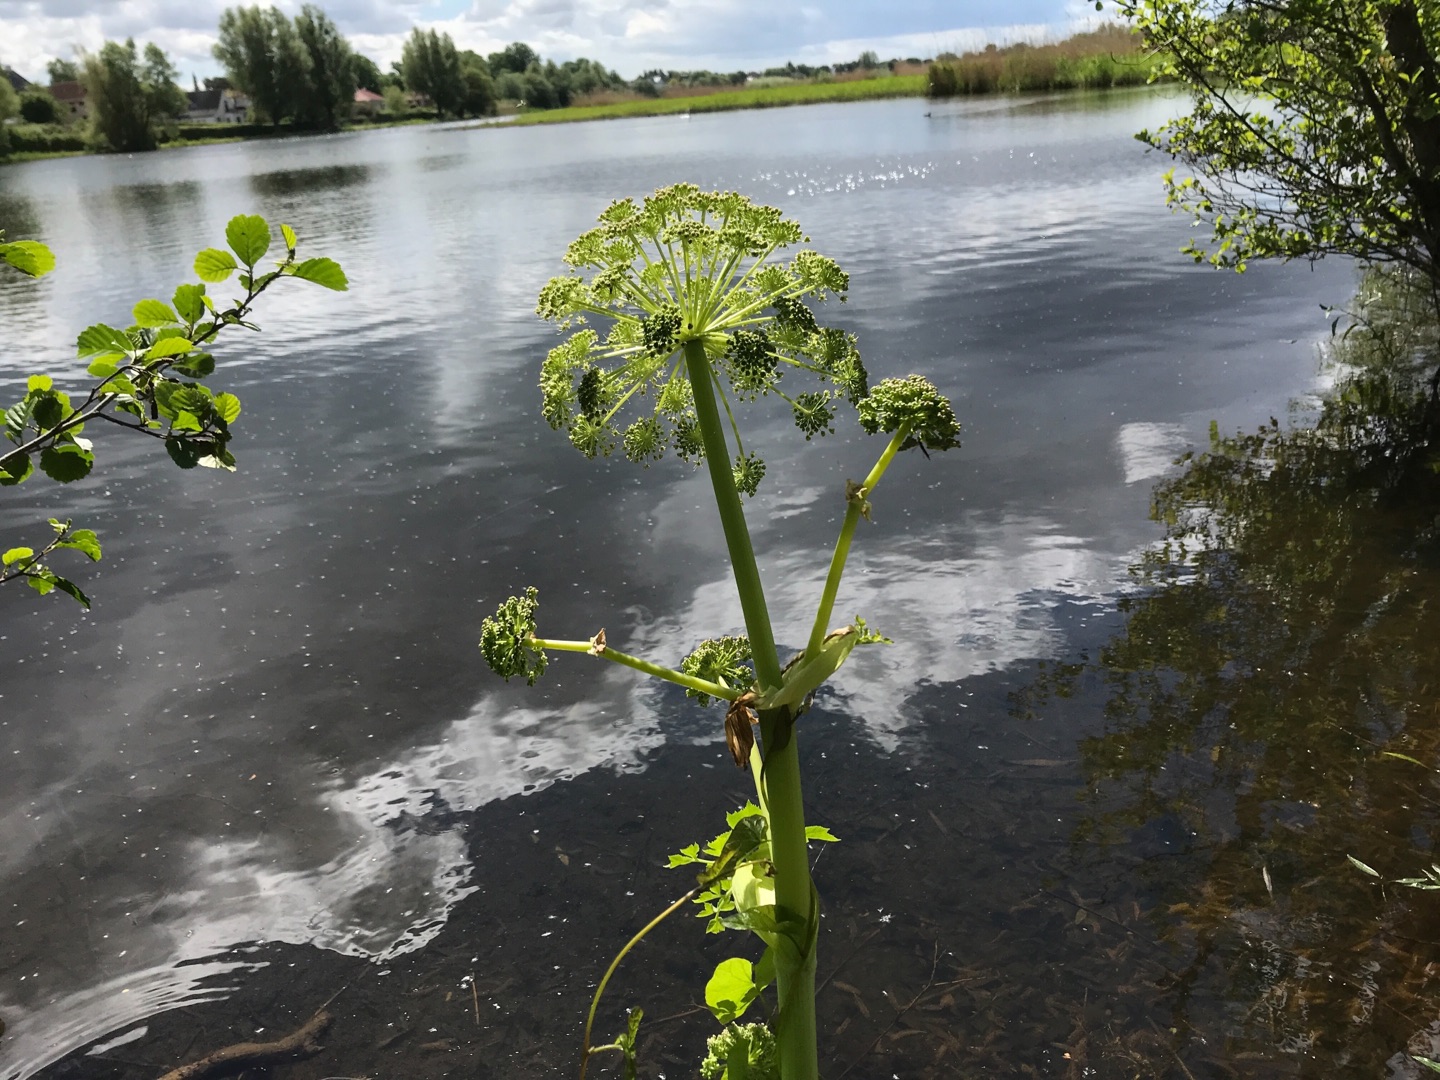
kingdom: Plantae
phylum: Tracheophyta
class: Magnoliopsida
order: Apiales
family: Apiaceae
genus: Angelica
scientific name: Angelica archangelica
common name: Kvan
